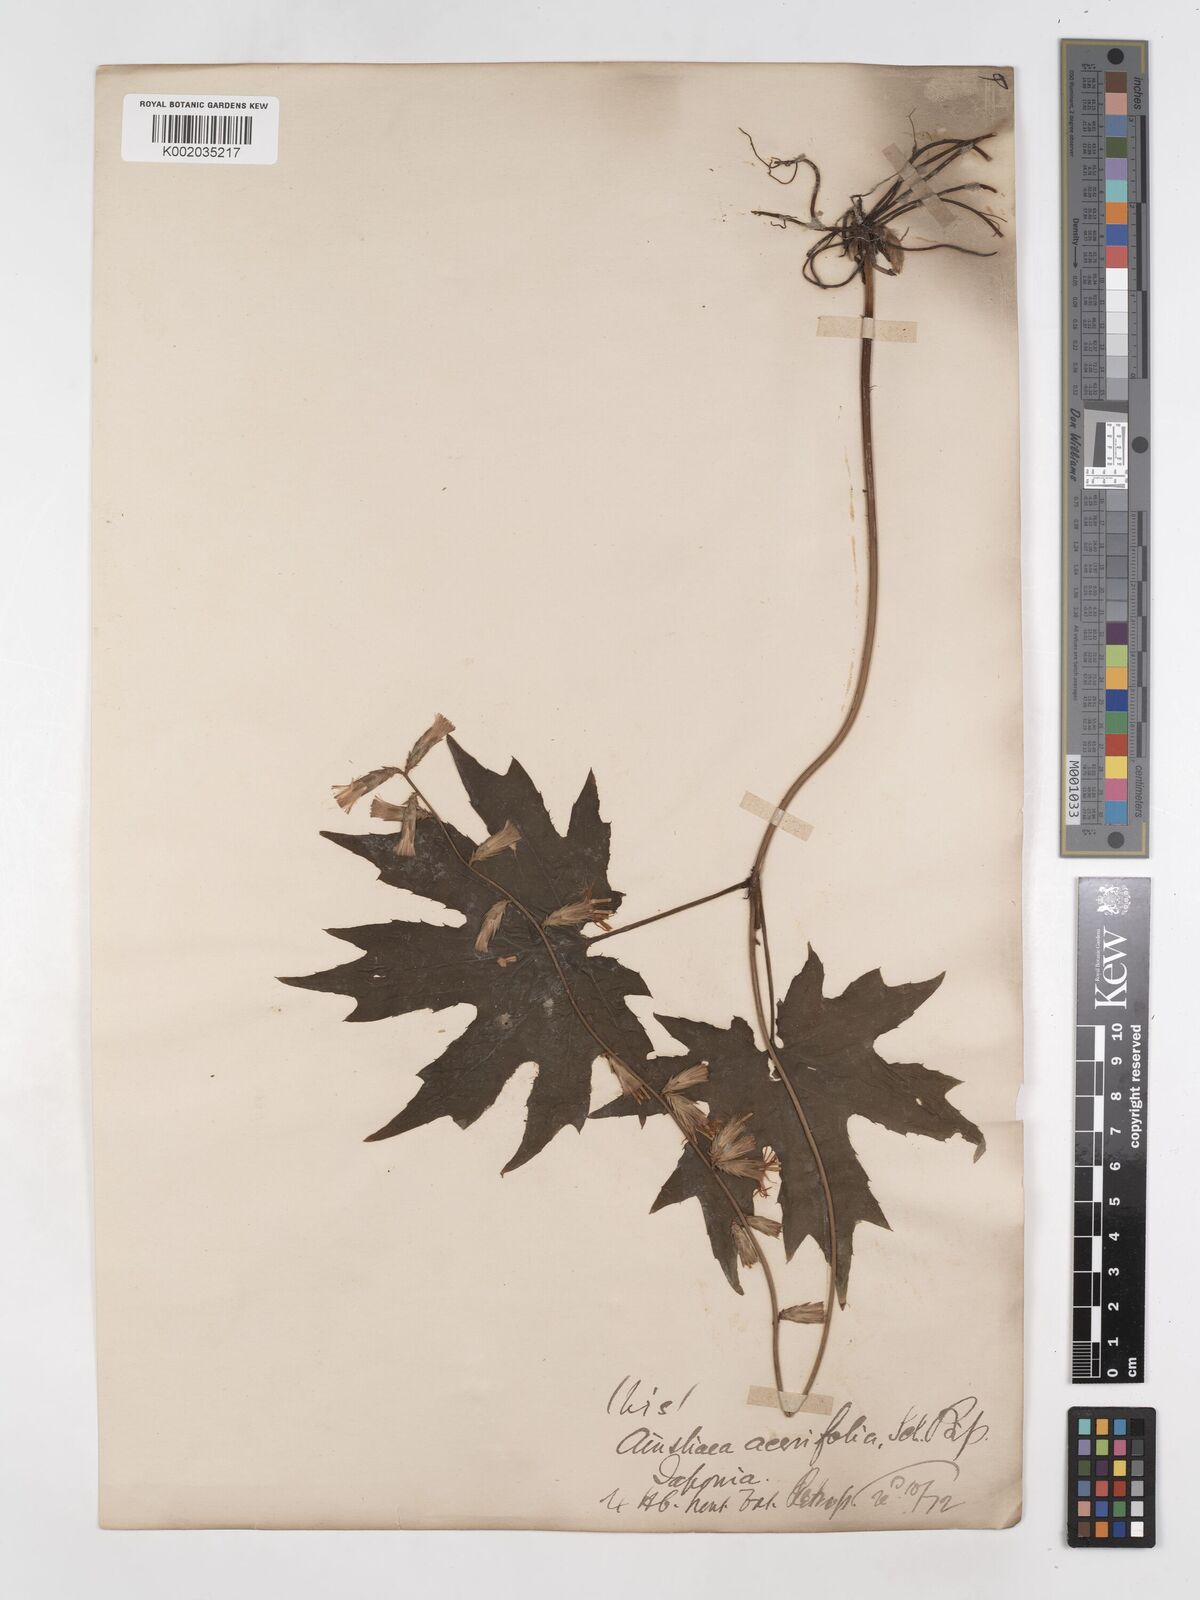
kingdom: Plantae
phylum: Tracheophyta
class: Magnoliopsida
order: Asterales
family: Asteraceae
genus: Ainsliaea
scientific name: Ainsliaea acerifolia
